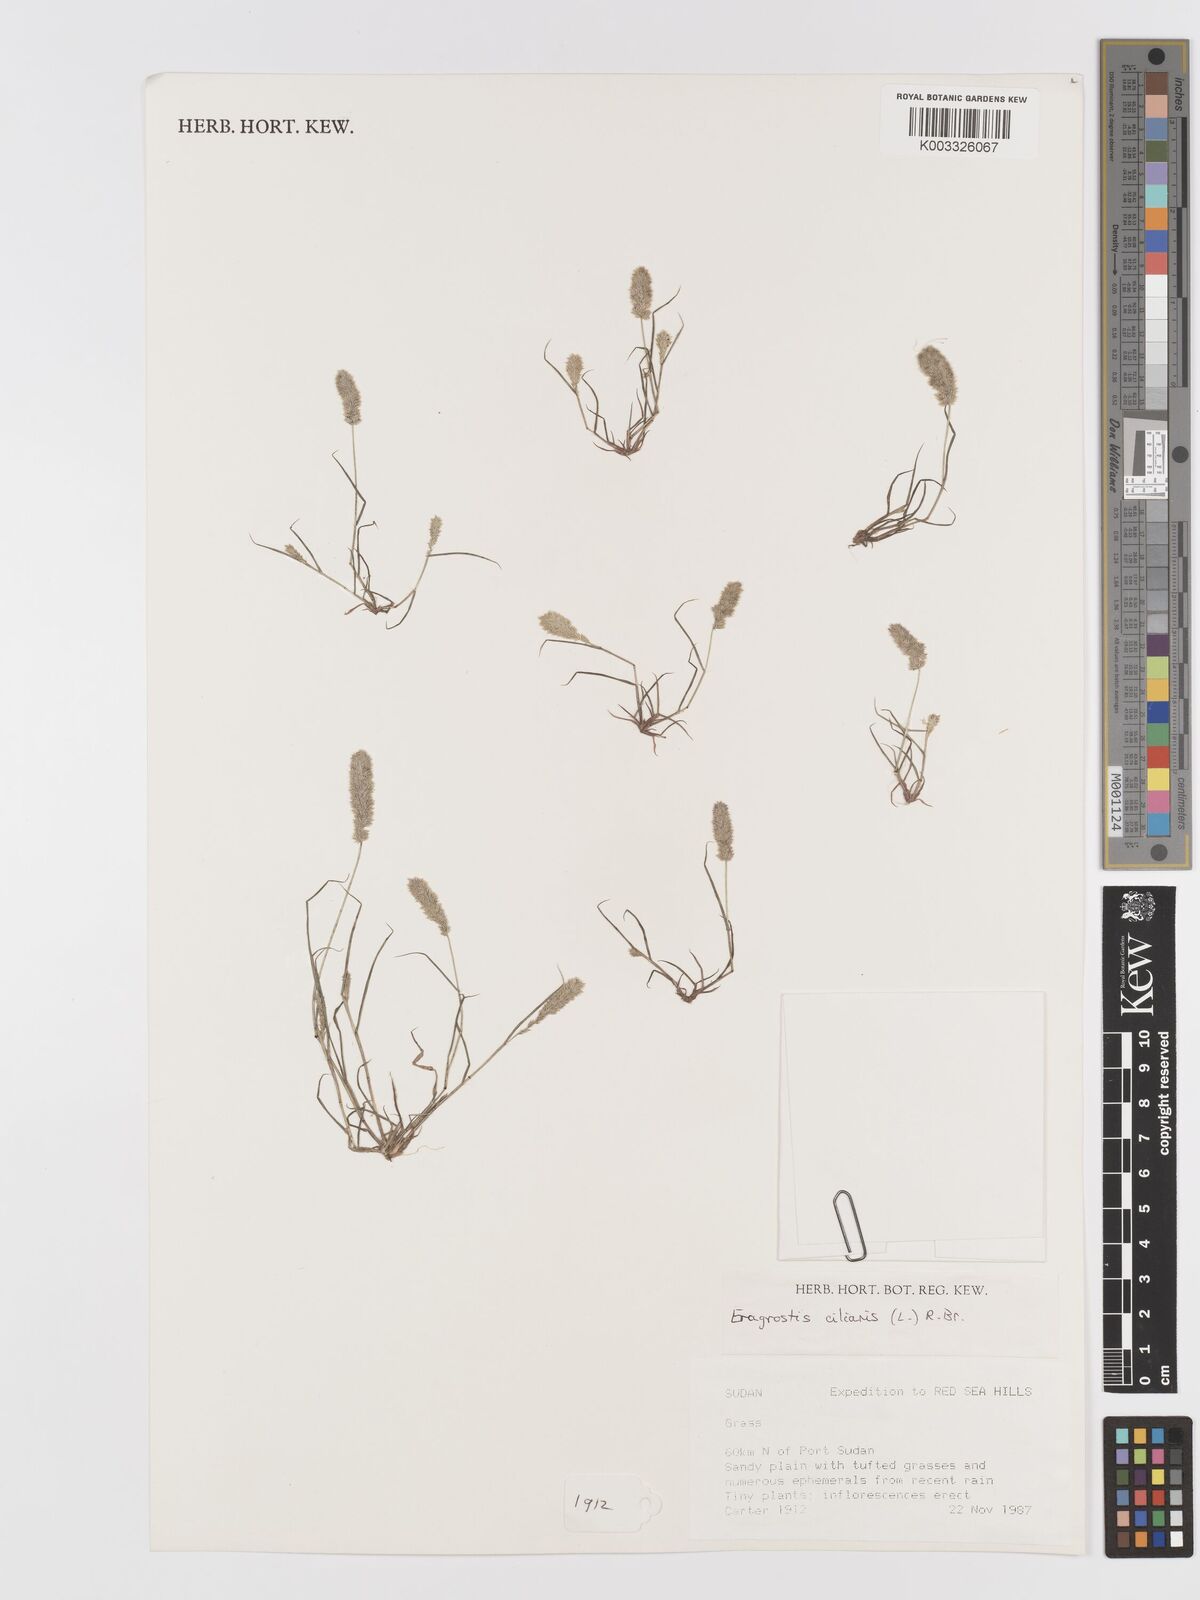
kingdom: Plantae
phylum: Tracheophyta
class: Liliopsida
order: Poales
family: Poaceae
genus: Eragrostis
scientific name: Eragrostis ciliaris
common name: Gophertail lovegrass
